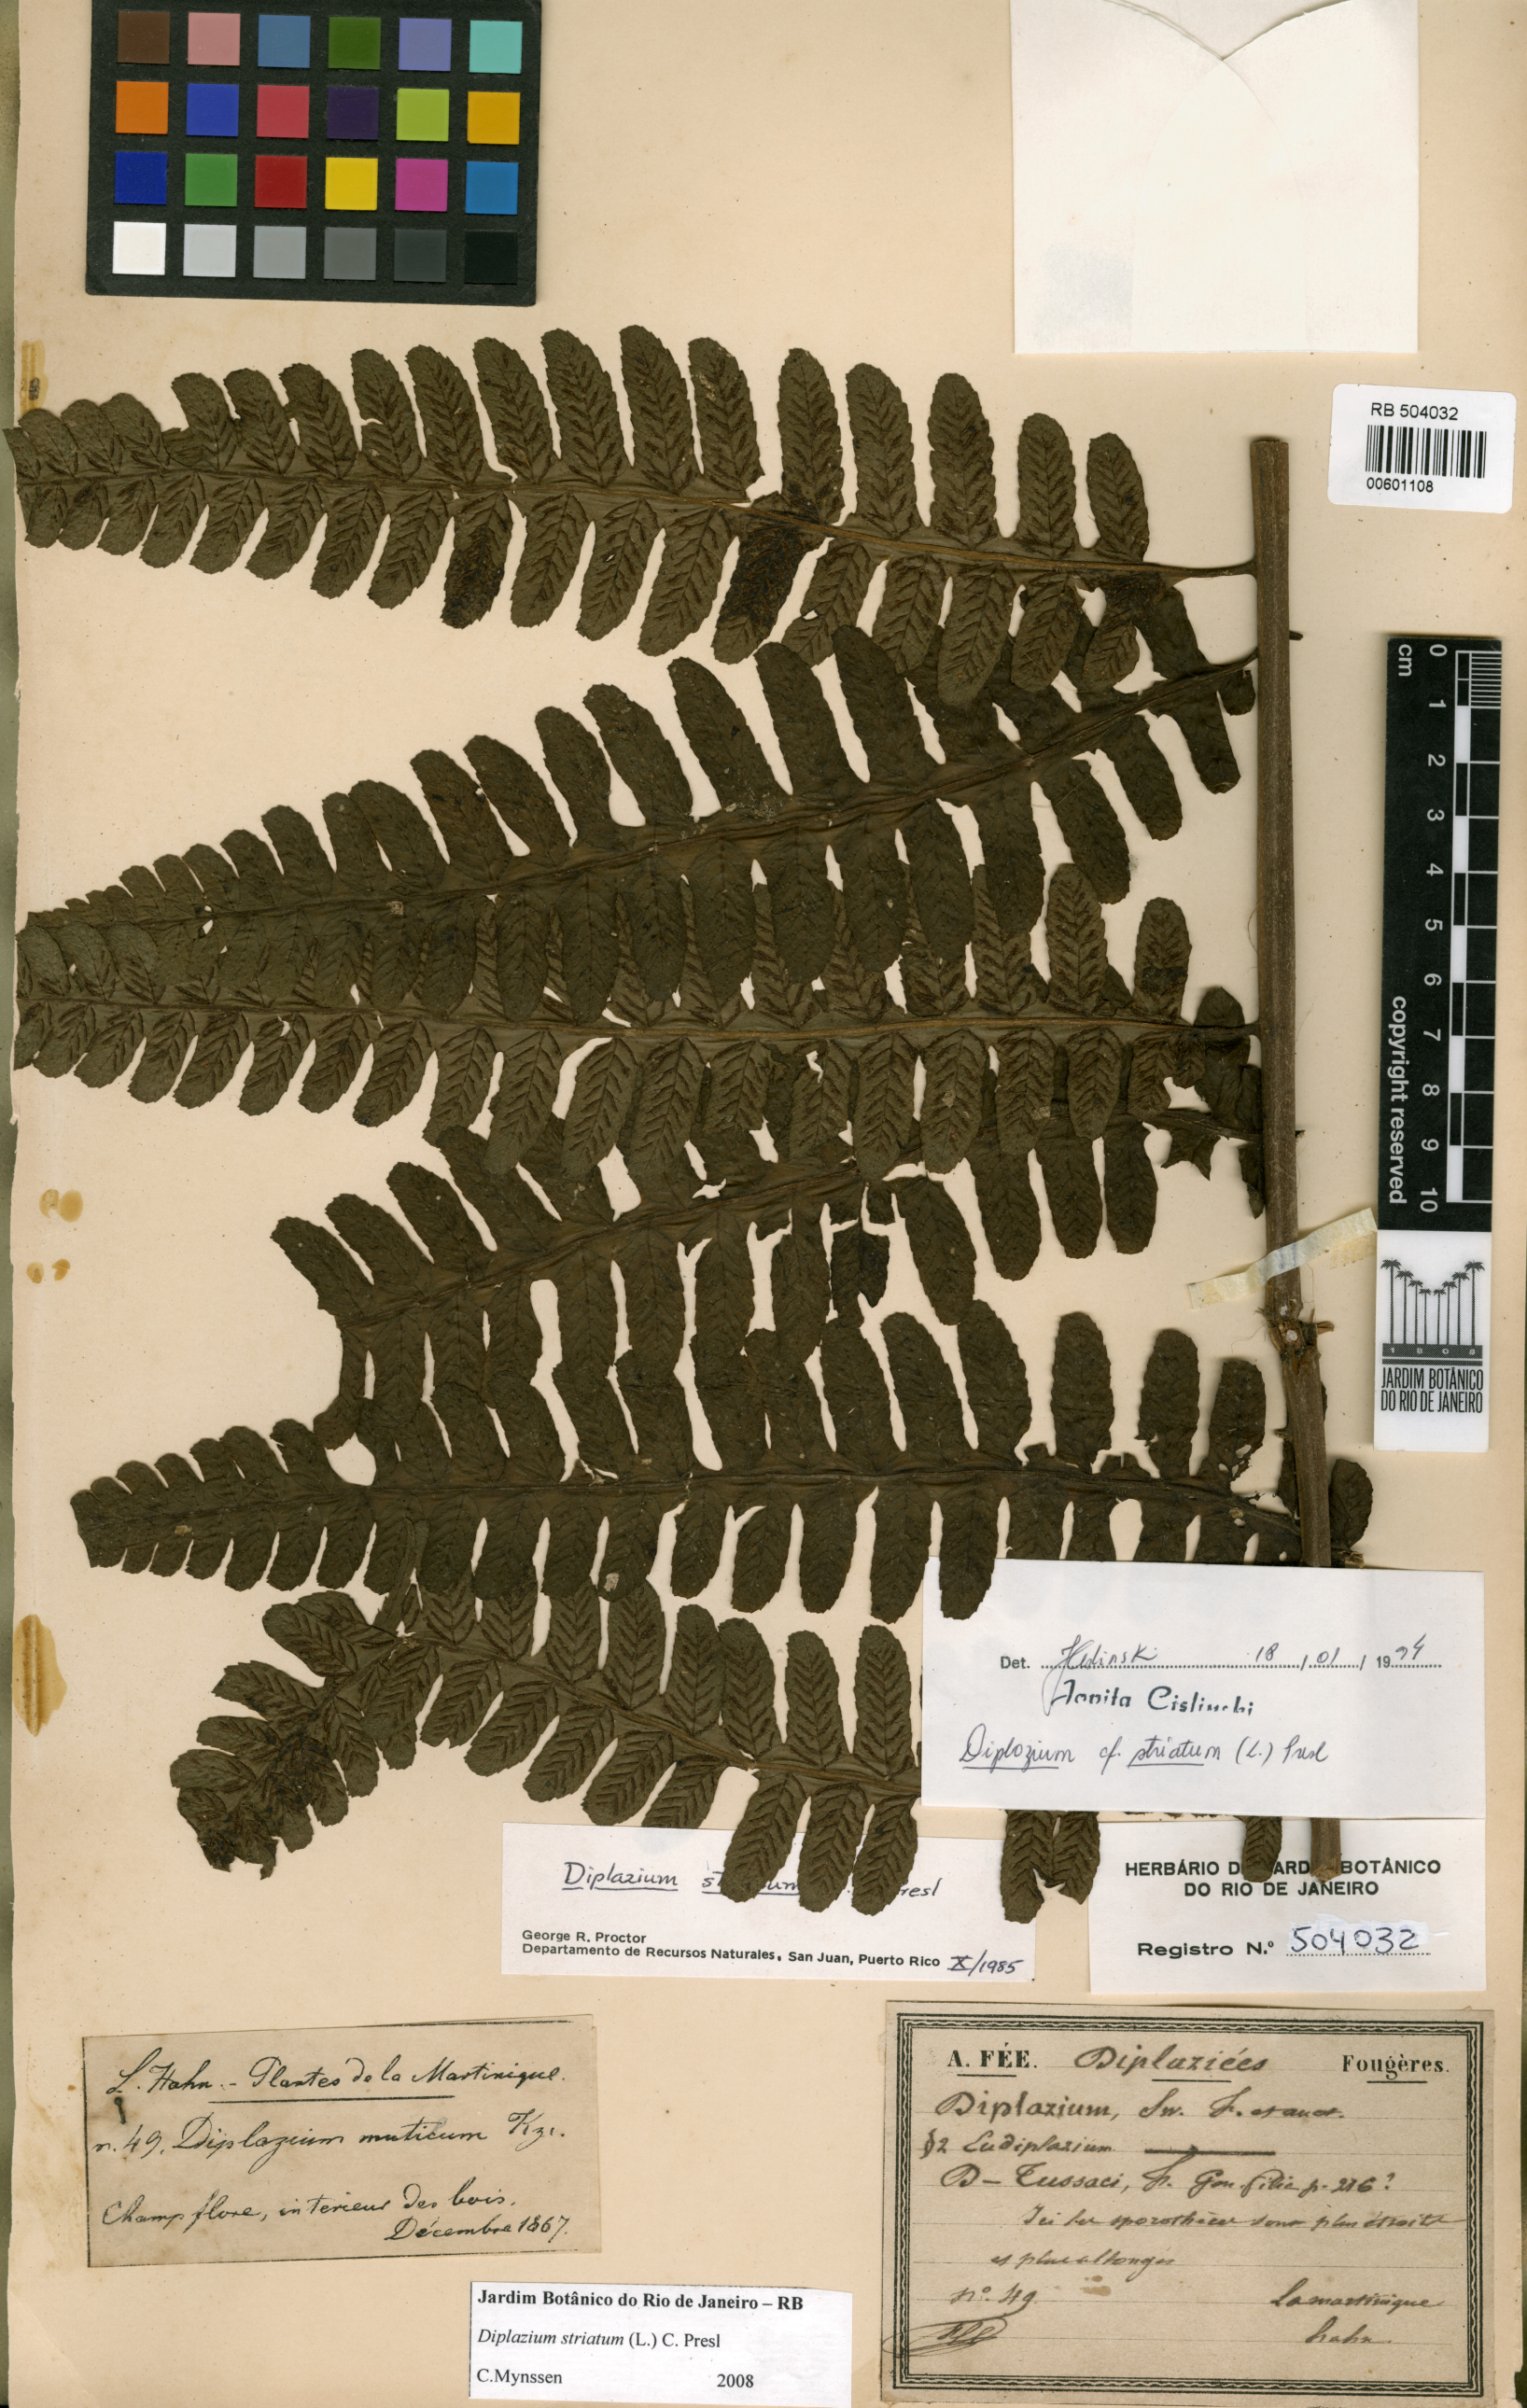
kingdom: Plantae
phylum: Tracheophyta
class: Polypodiopsida
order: Polypodiales
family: Athyriaceae
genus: Diplazium
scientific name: Diplazium striatum
